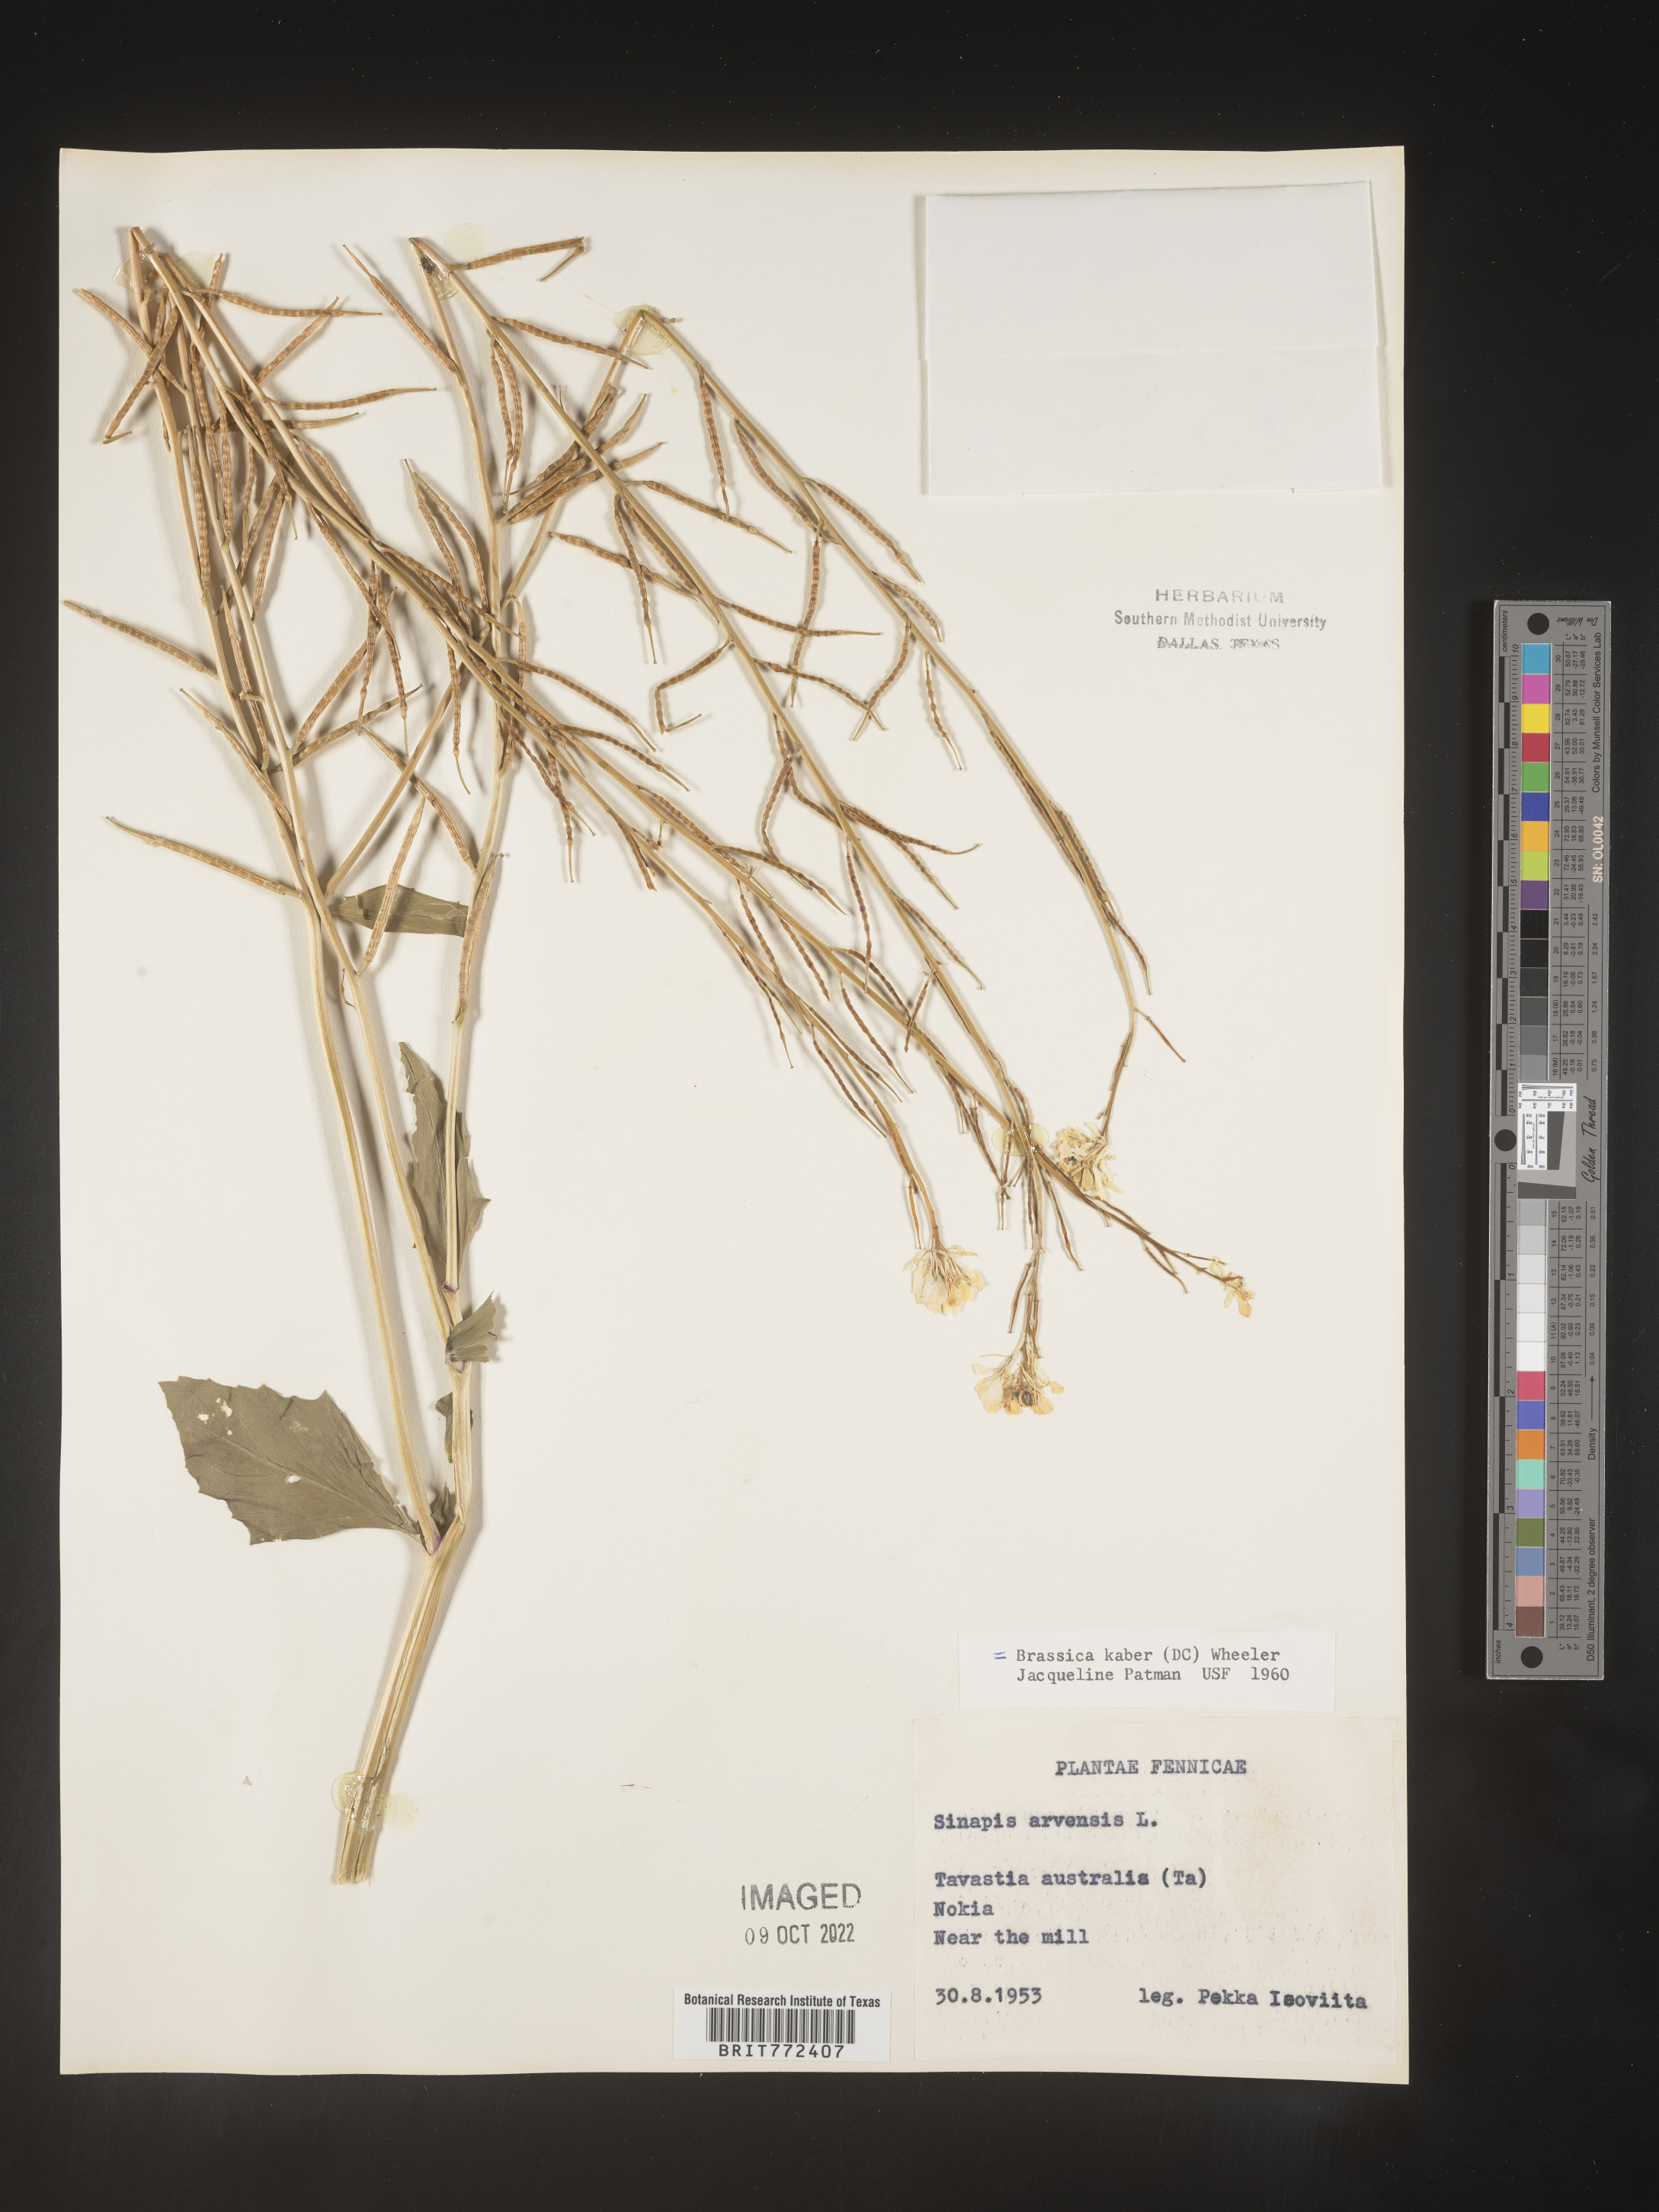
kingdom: Plantae
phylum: Tracheophyta
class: Magnoliopsida
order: Brassicales
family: Brassicaceae
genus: Brassica
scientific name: Brassica
